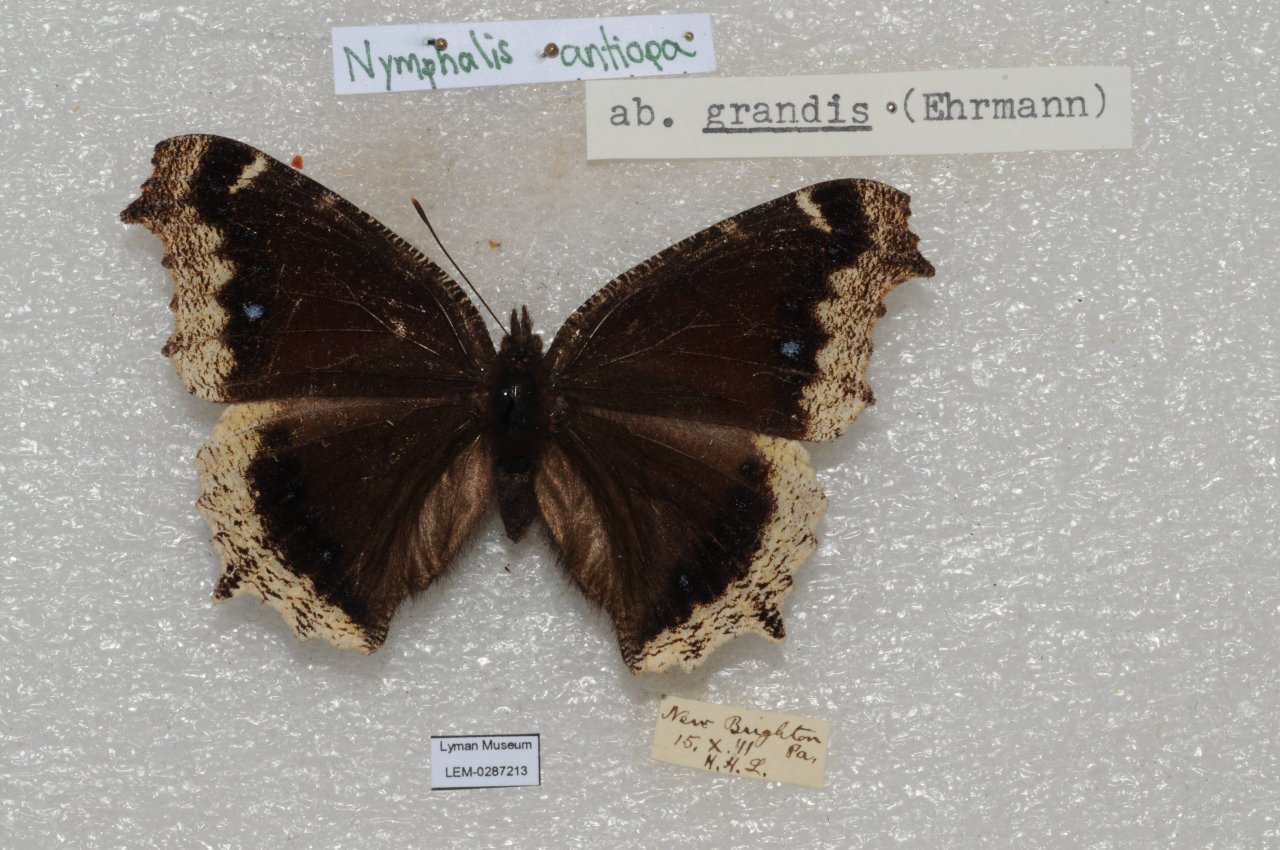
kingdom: Animalia
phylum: Arthropoda
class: Insecta
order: Lepidoptera
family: Nymphalidae
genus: Nymphalis
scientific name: Nymphalis antiopa
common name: Mourning Cloak
